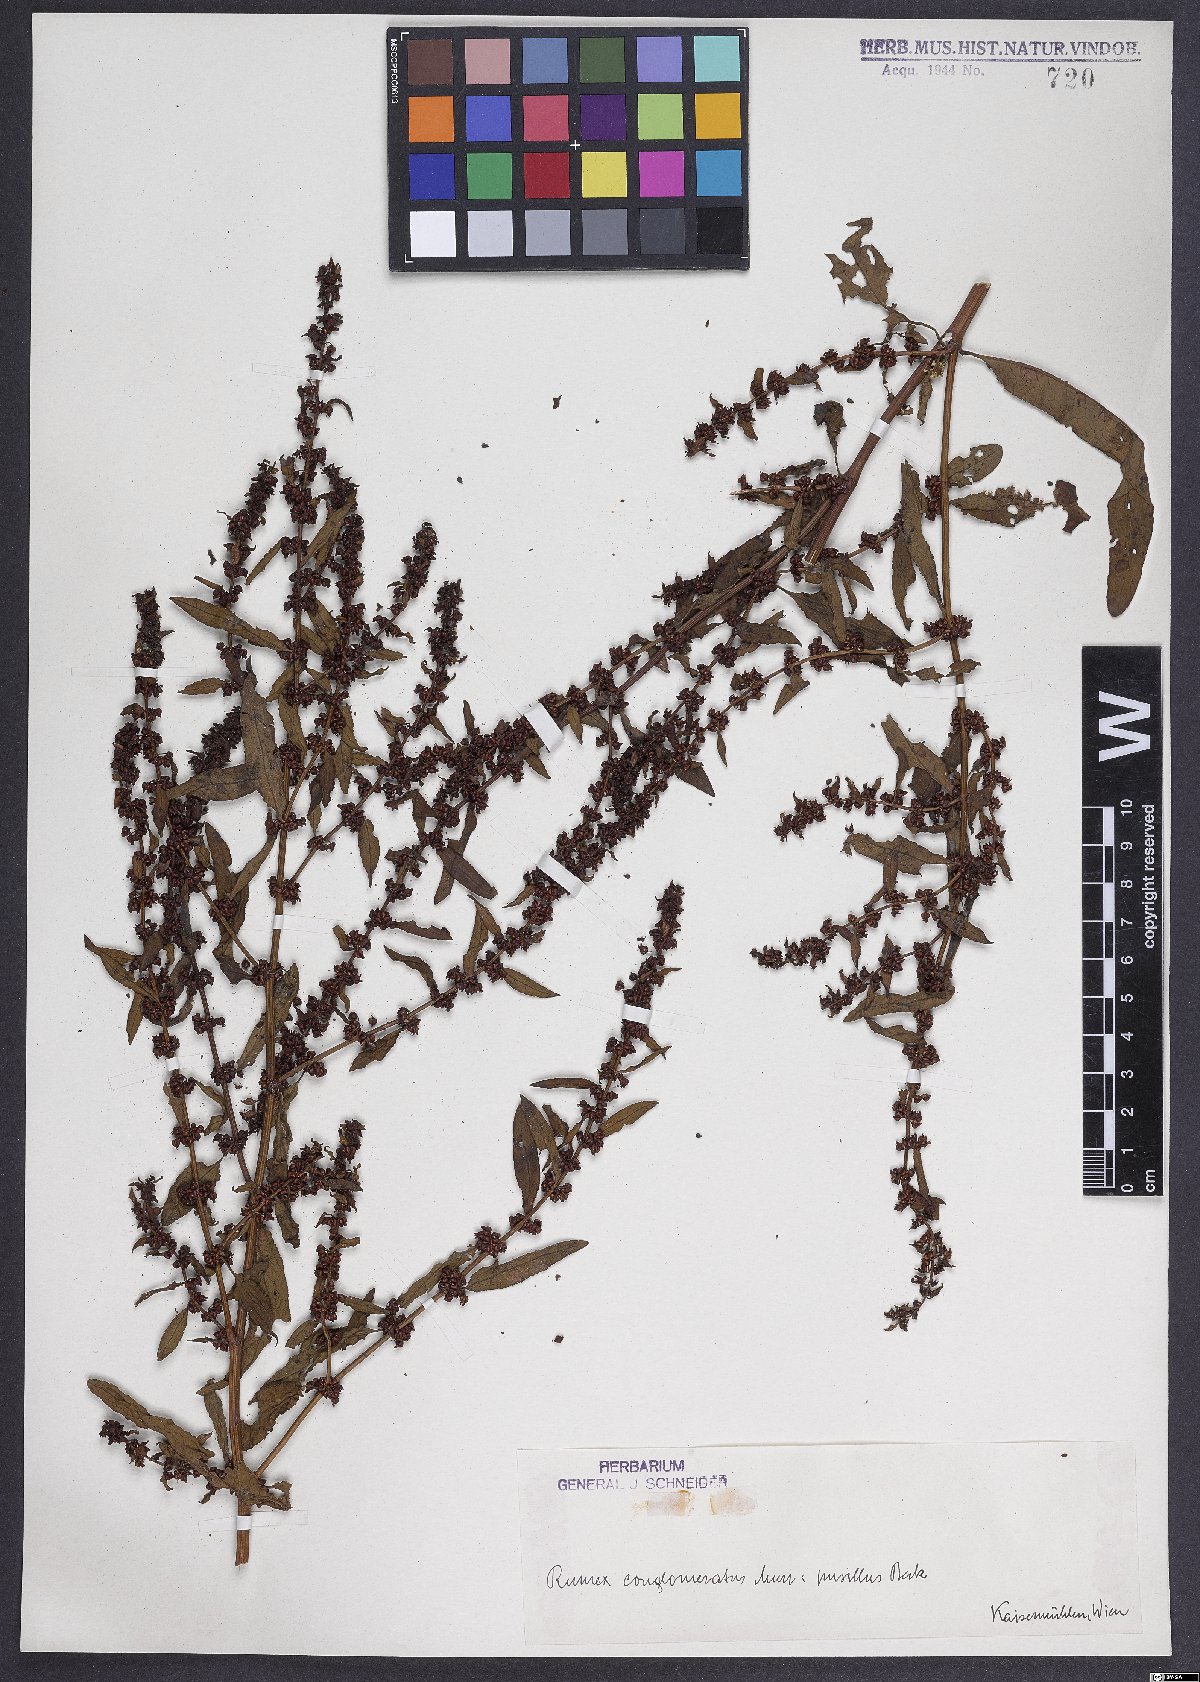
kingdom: Plantae
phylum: Tracheophyta
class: Magnoliopsida
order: Caryophyllales
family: Polygonaceae
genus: Rumex
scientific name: Rumex conglomeratus
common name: Clustered dock
